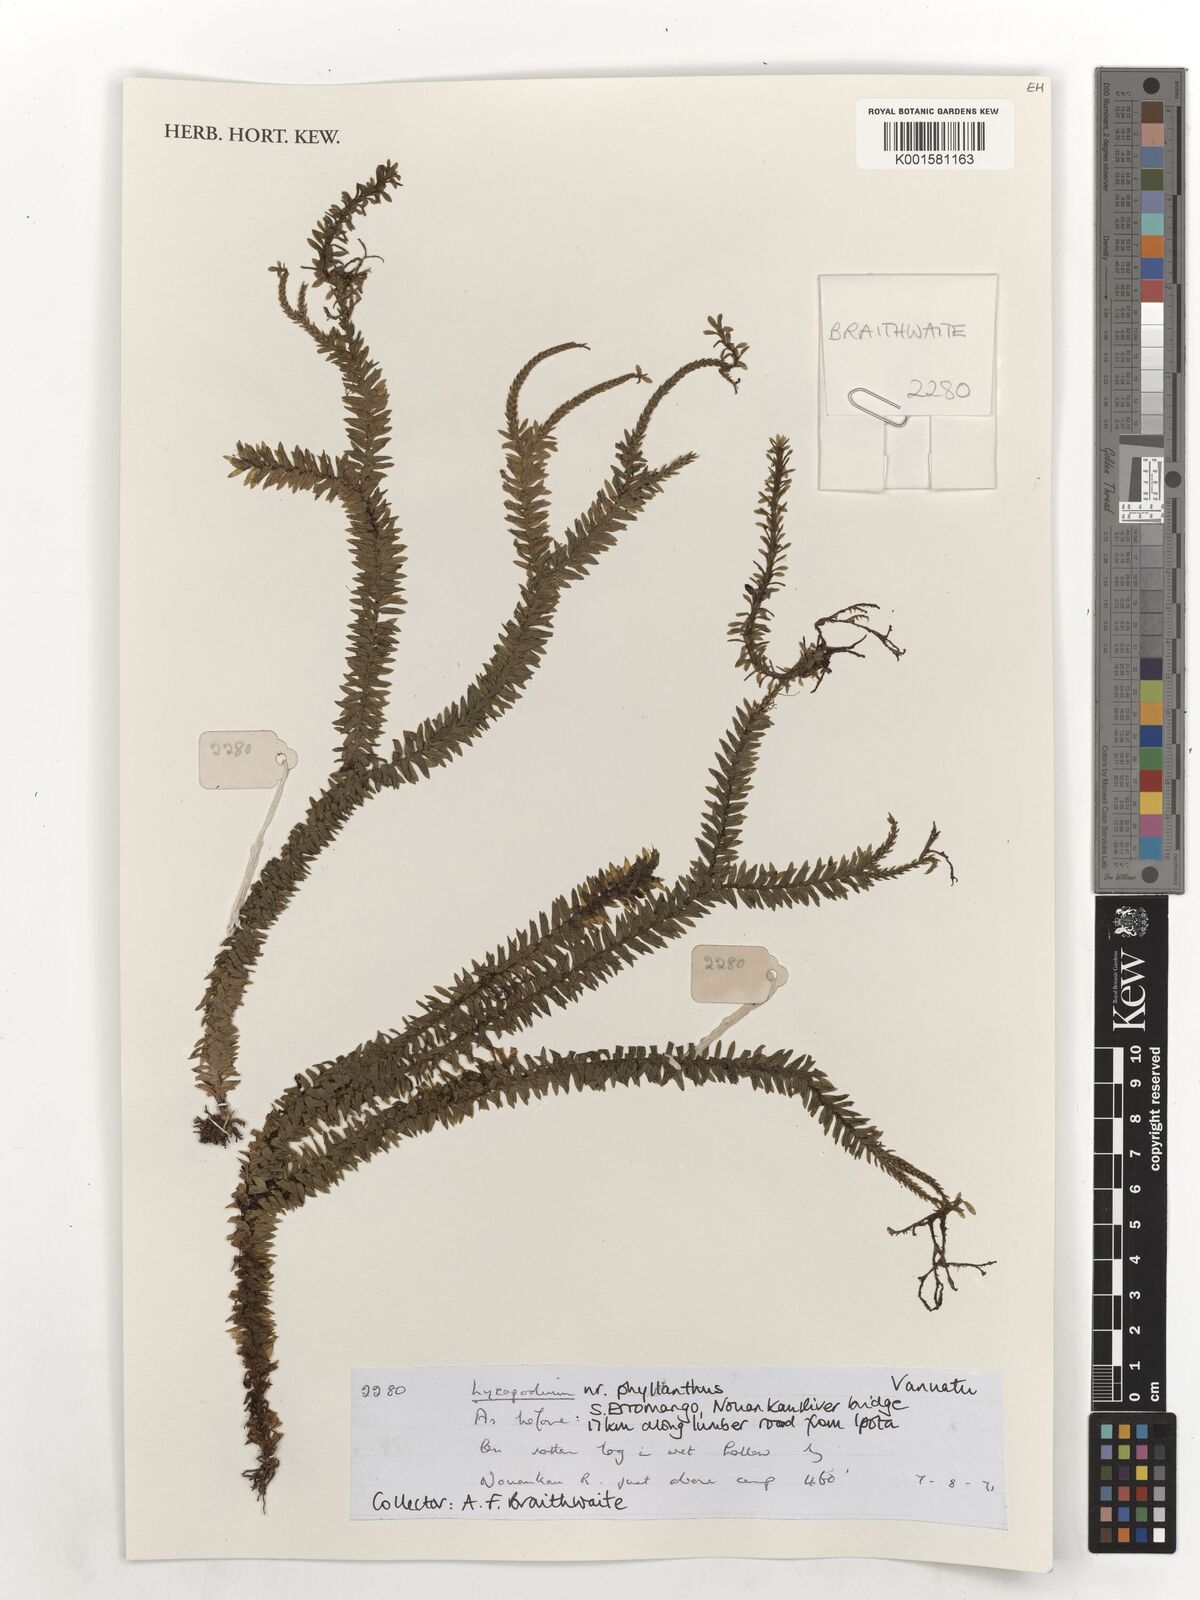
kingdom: Plantae
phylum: Tracheophyta
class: Lycopodiopsida
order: Lycopodiales
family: Lycopodiaceae
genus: Phlegmariurus
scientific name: Phlegmariurus phyllanthus
